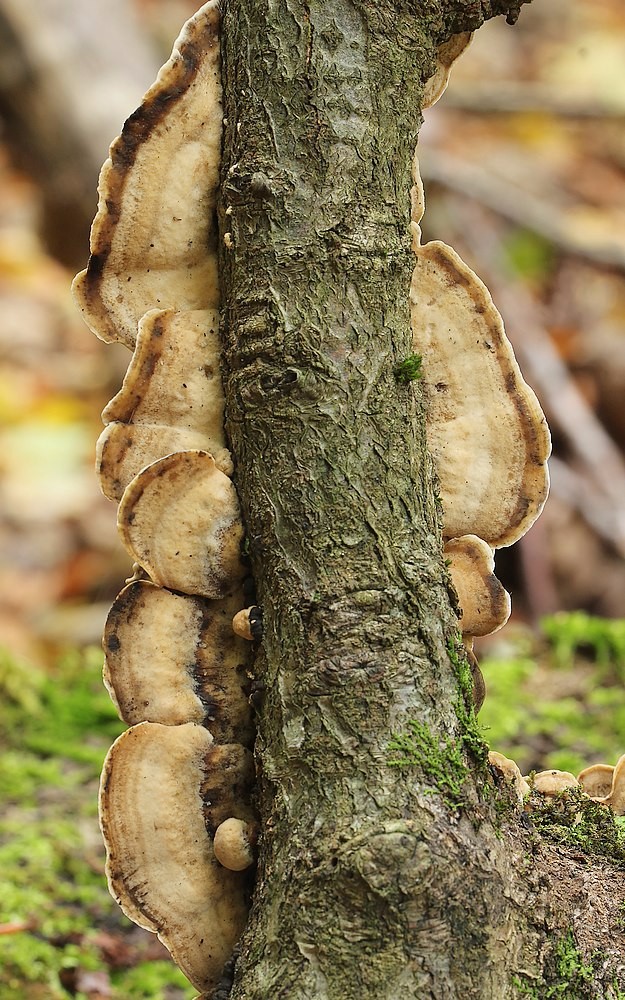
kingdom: Fungi
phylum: Basidiomycota
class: Agaricomycetes
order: Polyporales
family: Phanerochaetaceae
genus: Bjerkandera
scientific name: Bjerkandera adusta
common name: sveden sodporesvamp
